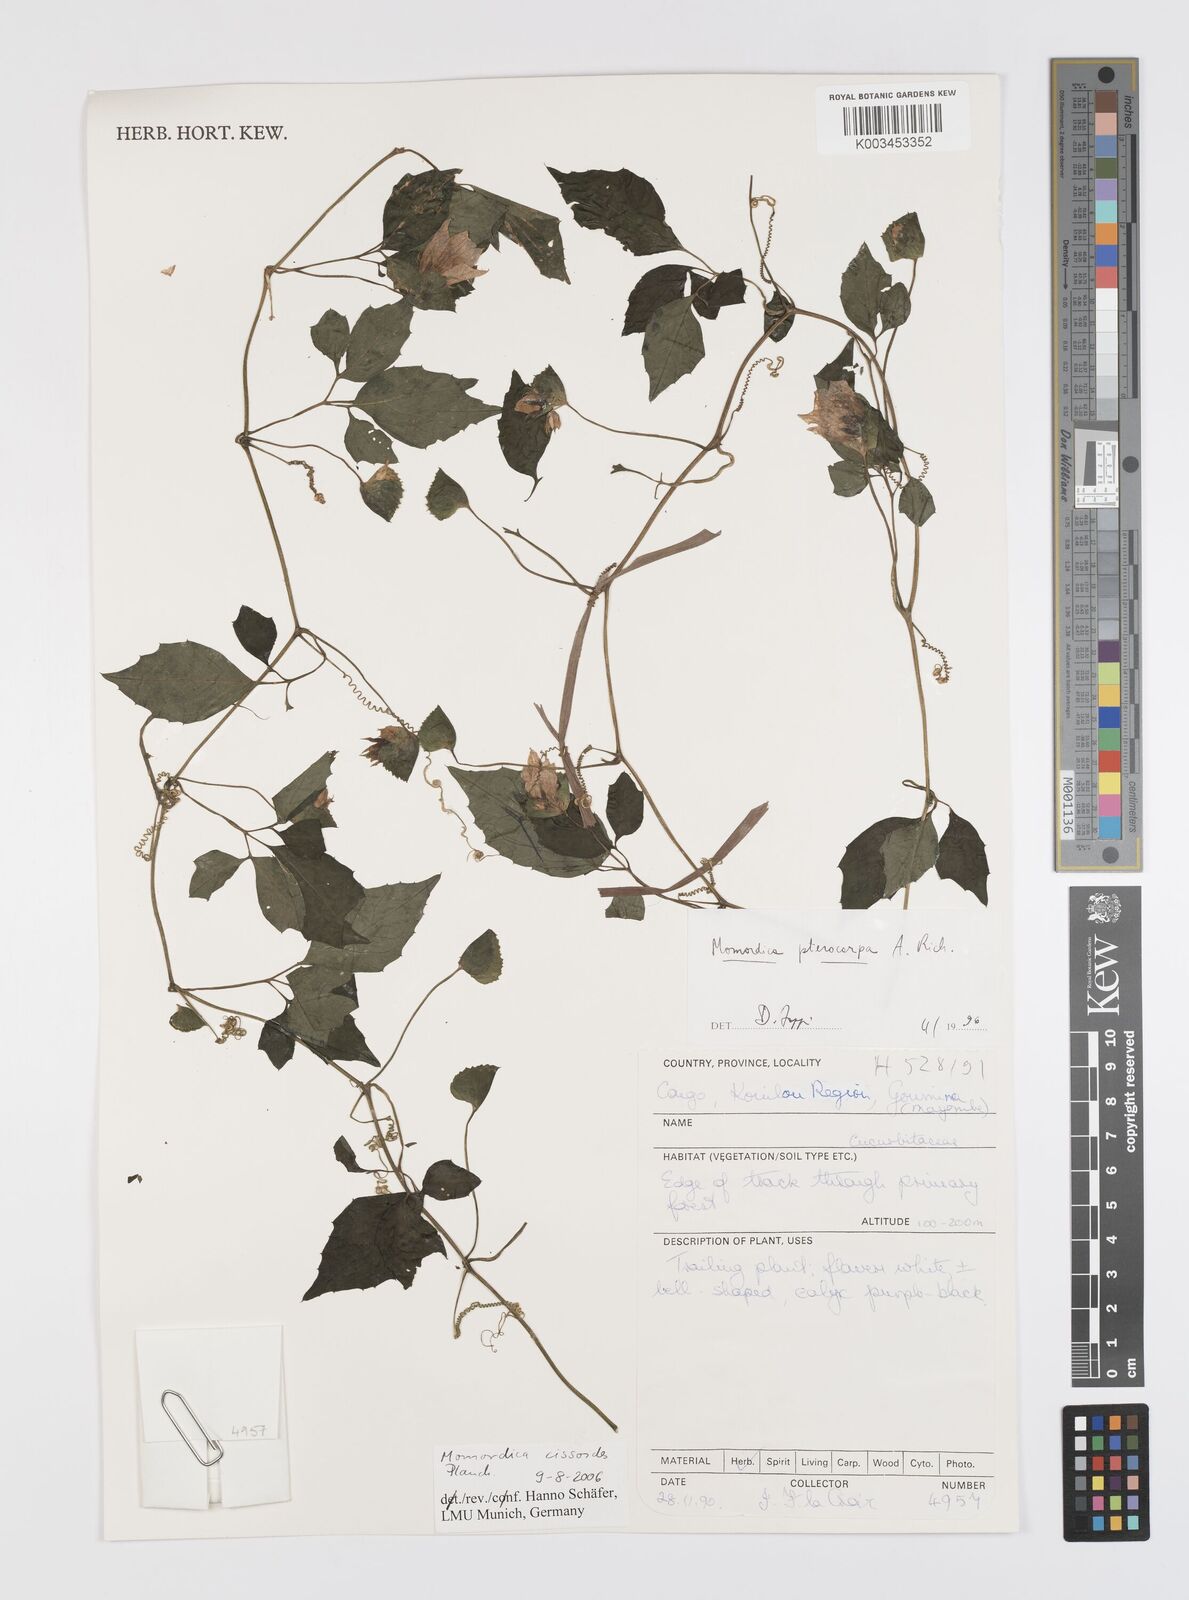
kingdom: Plantae
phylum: Tracheophyta
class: Magnoliopsida
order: Cucurbitales
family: Cucurbitaceae
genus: Momordica
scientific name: Momordica cissoides
